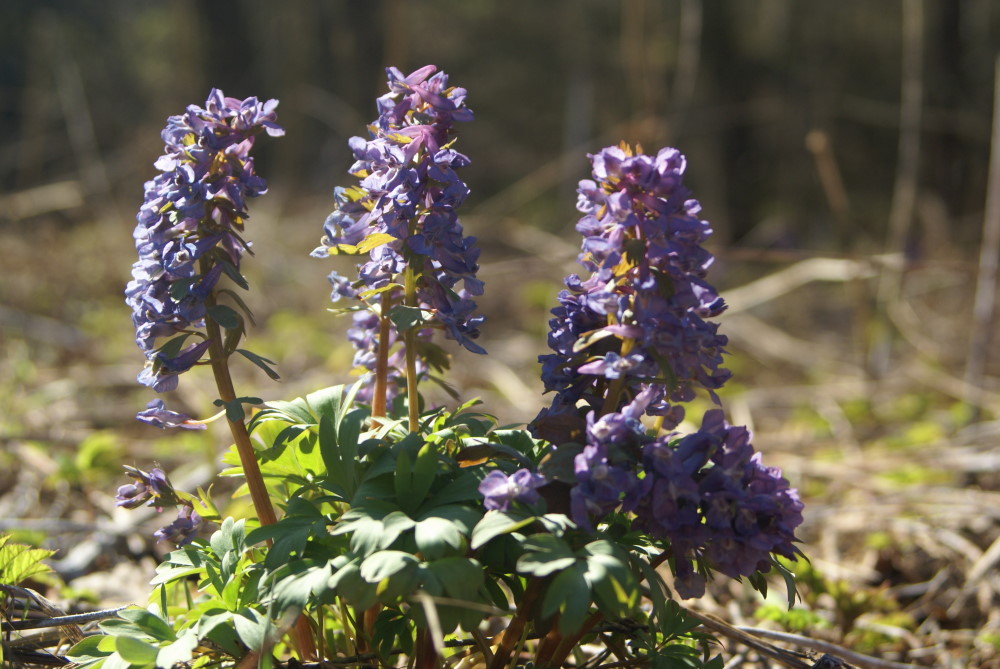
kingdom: Plantae
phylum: Tracheophyta
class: Magnoliopsida
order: Ranunculales
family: Papaveraceae
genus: Corydalis
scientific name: Corydalis solida
